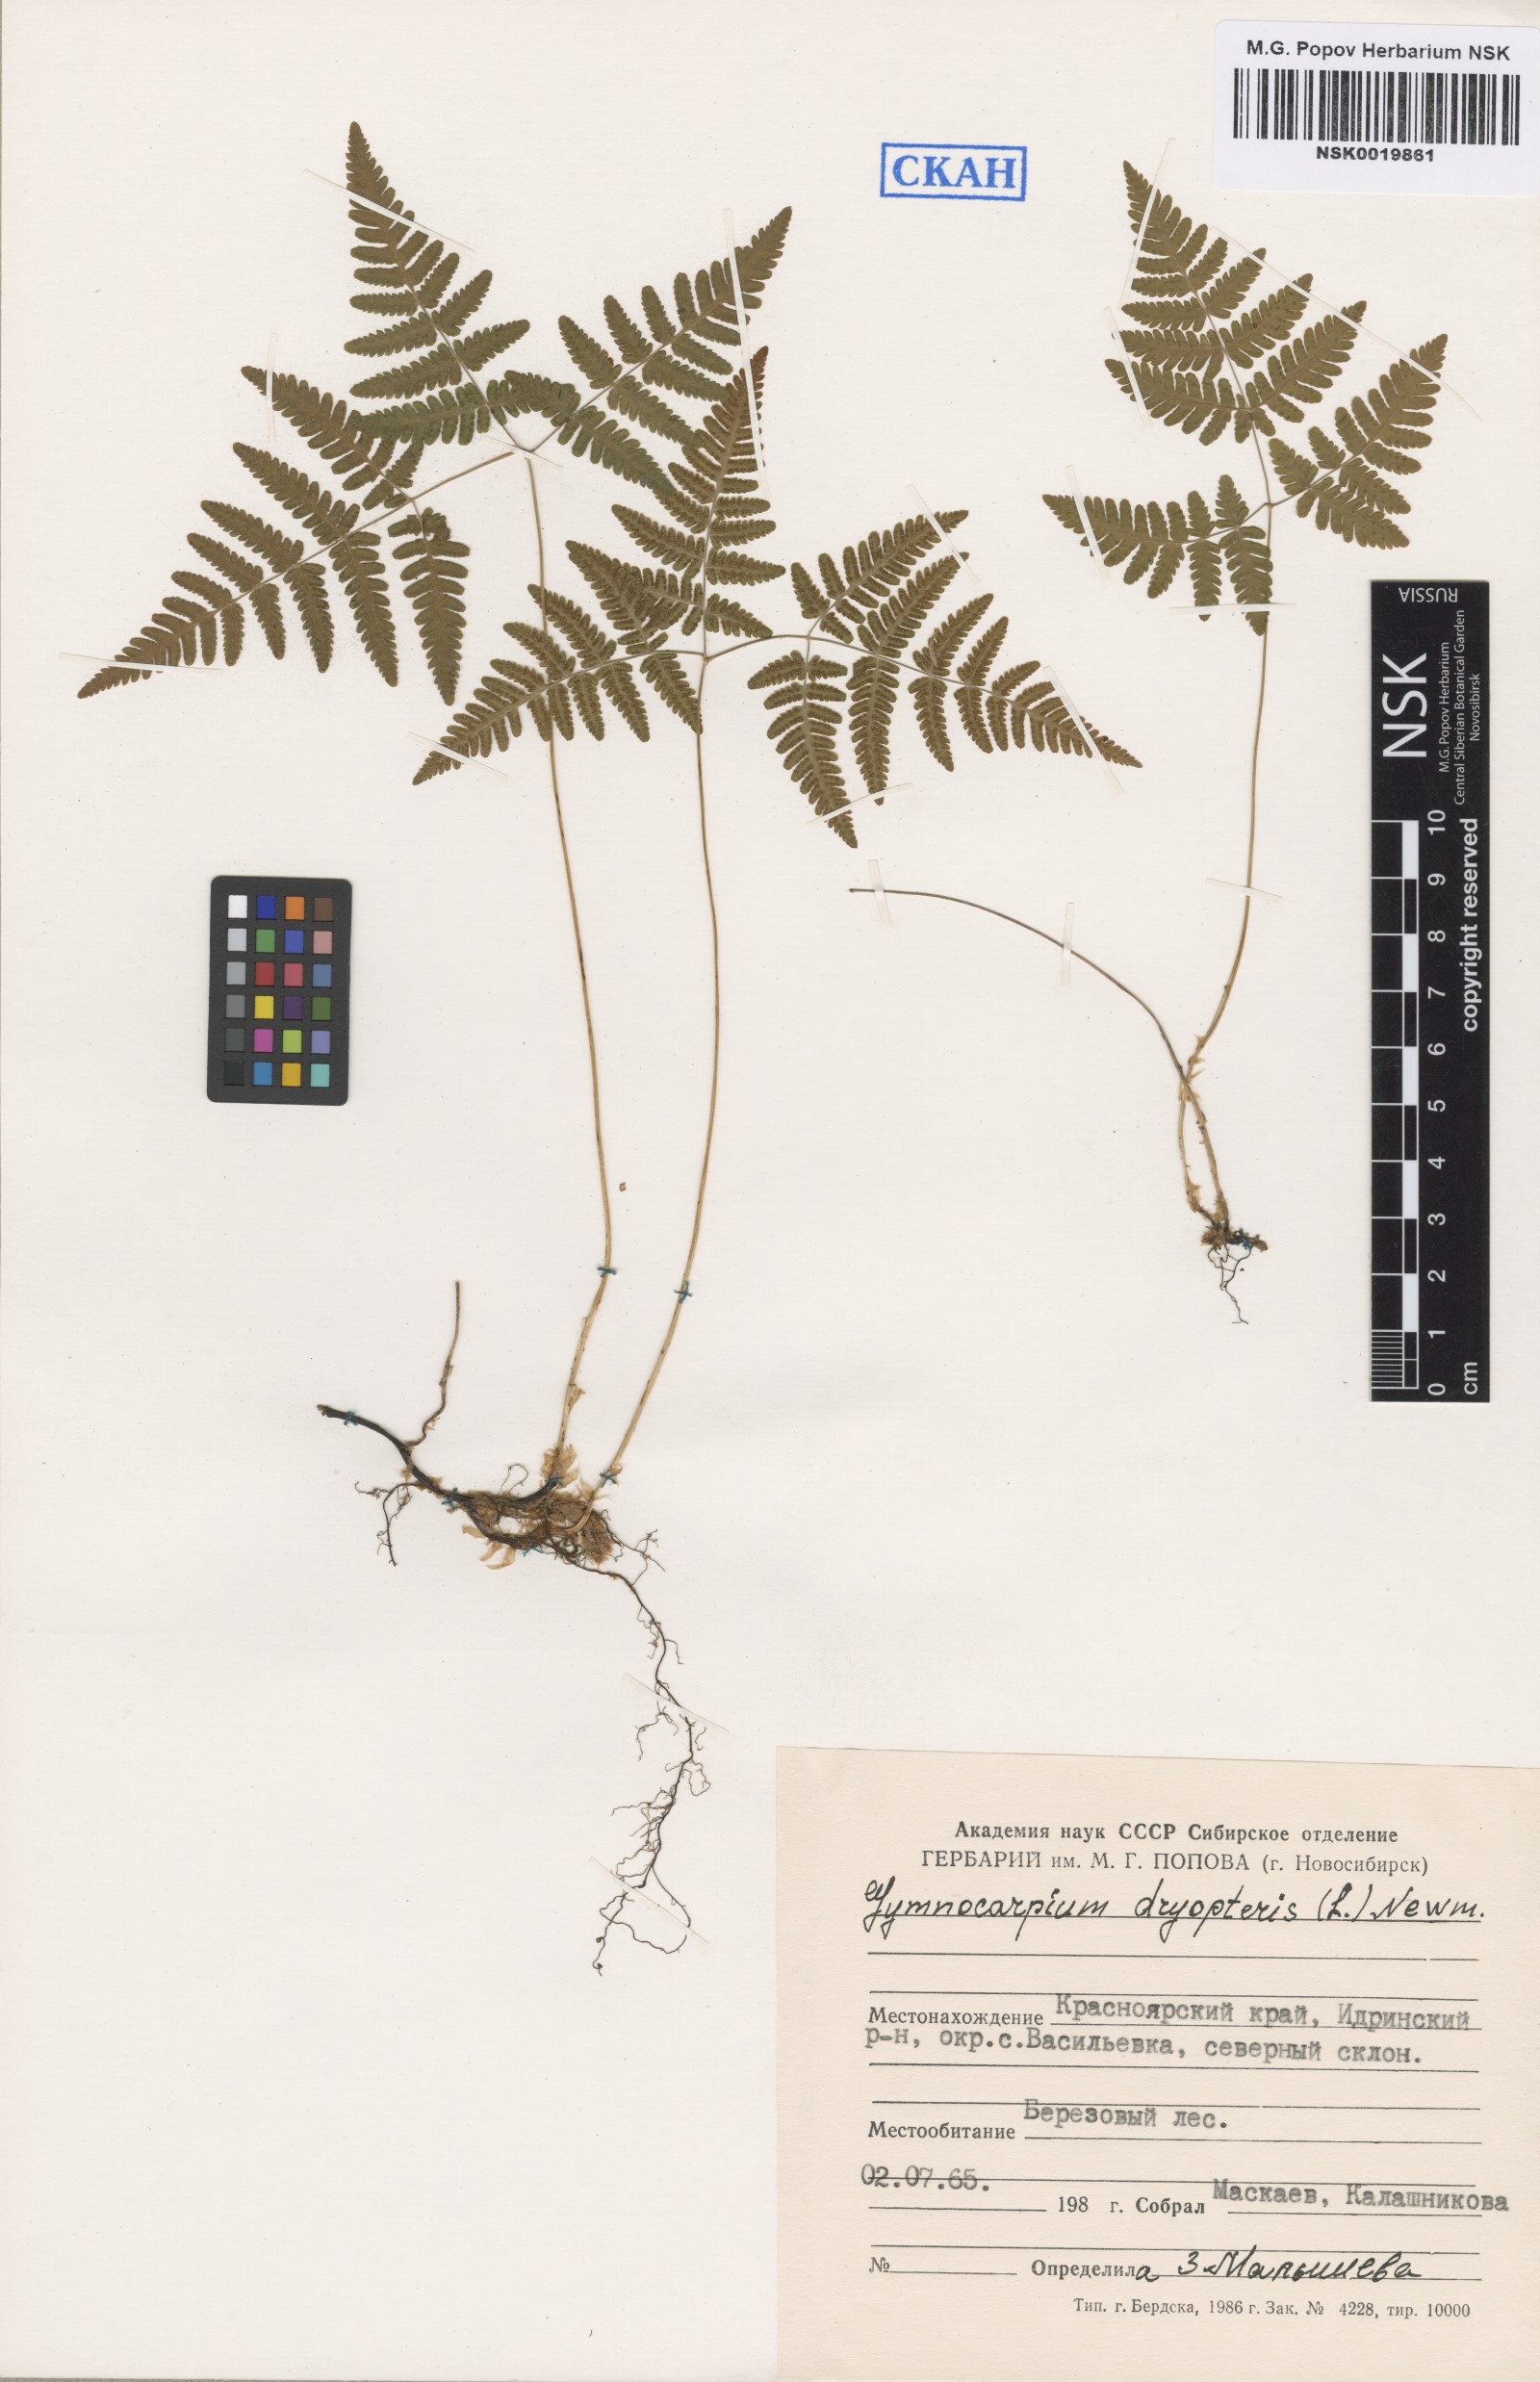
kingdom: Plantae
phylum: Tracheophyta
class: Polypodiopsida
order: Polypodiales
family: Cystopteridaceae
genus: Gymnocarpium
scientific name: Gymnocarpium dryopteris
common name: Oak fern
